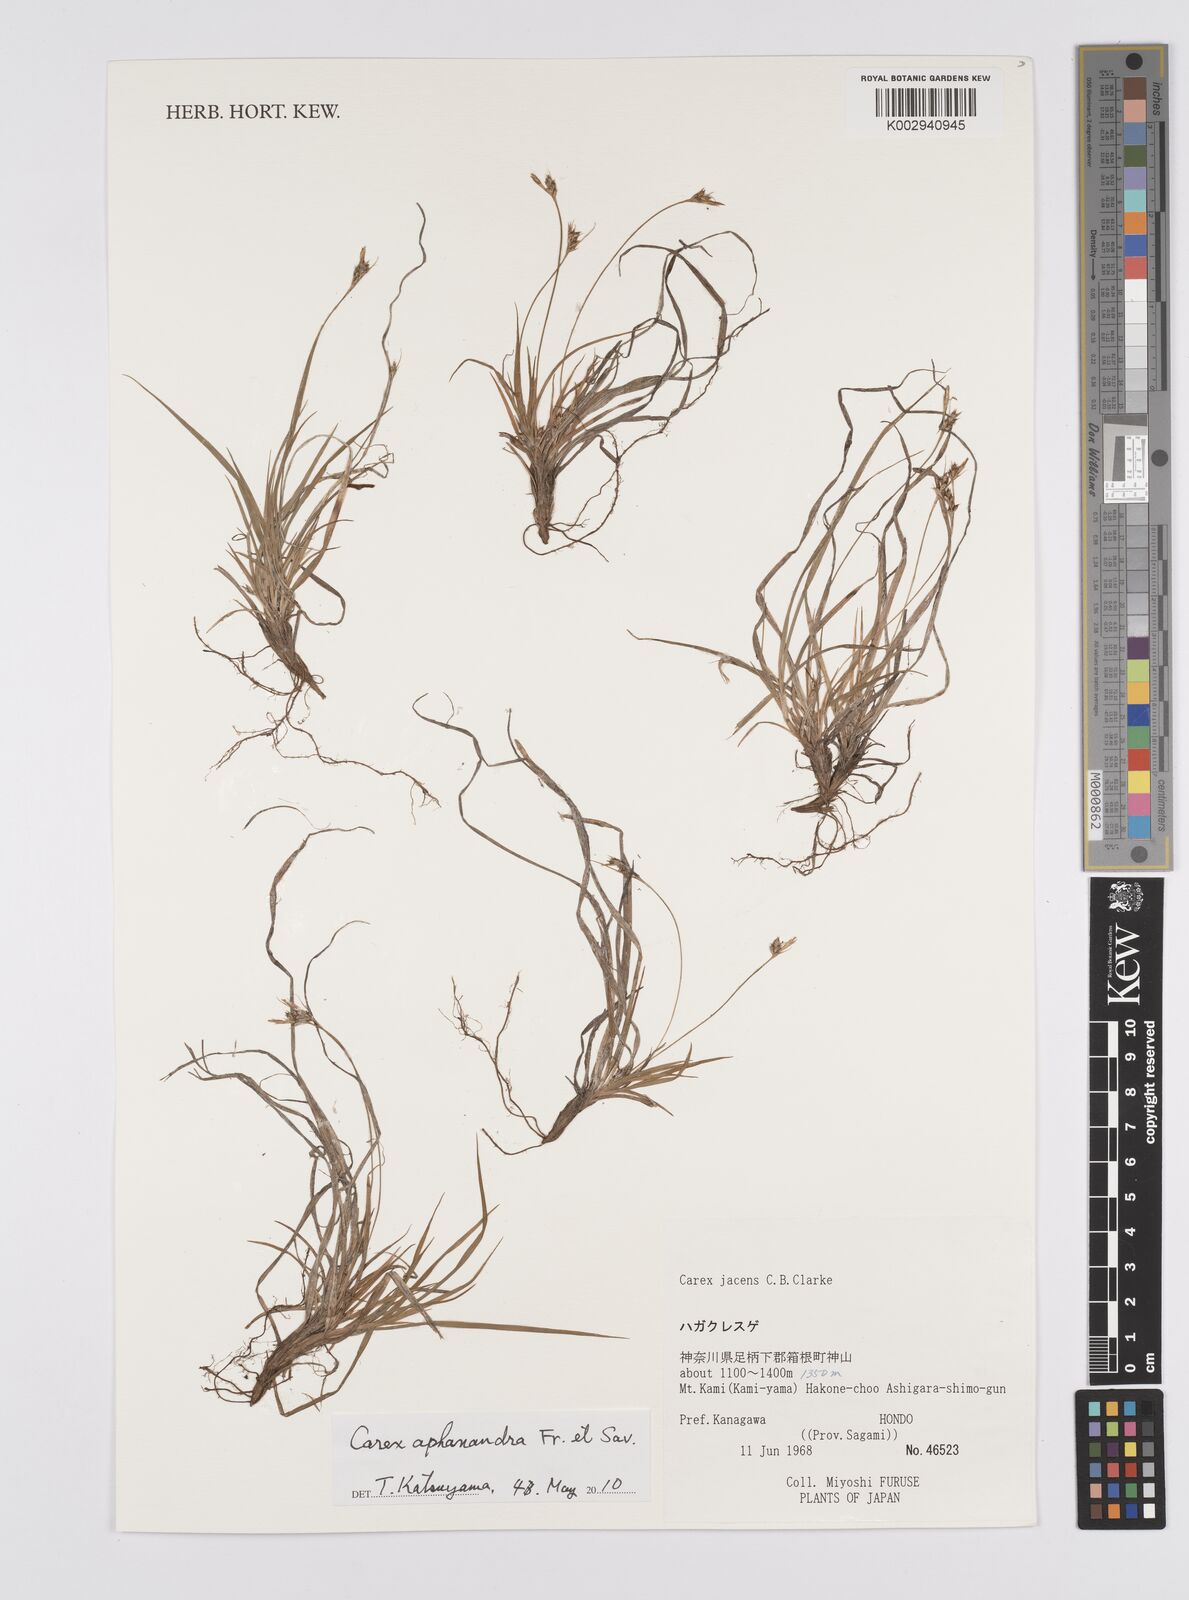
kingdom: Plantae
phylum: Tracheophyta
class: Liliopsida
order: Poales
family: Cyperaceae
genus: Carex
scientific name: Carex breviculmis
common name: Asian shortstem sedge
